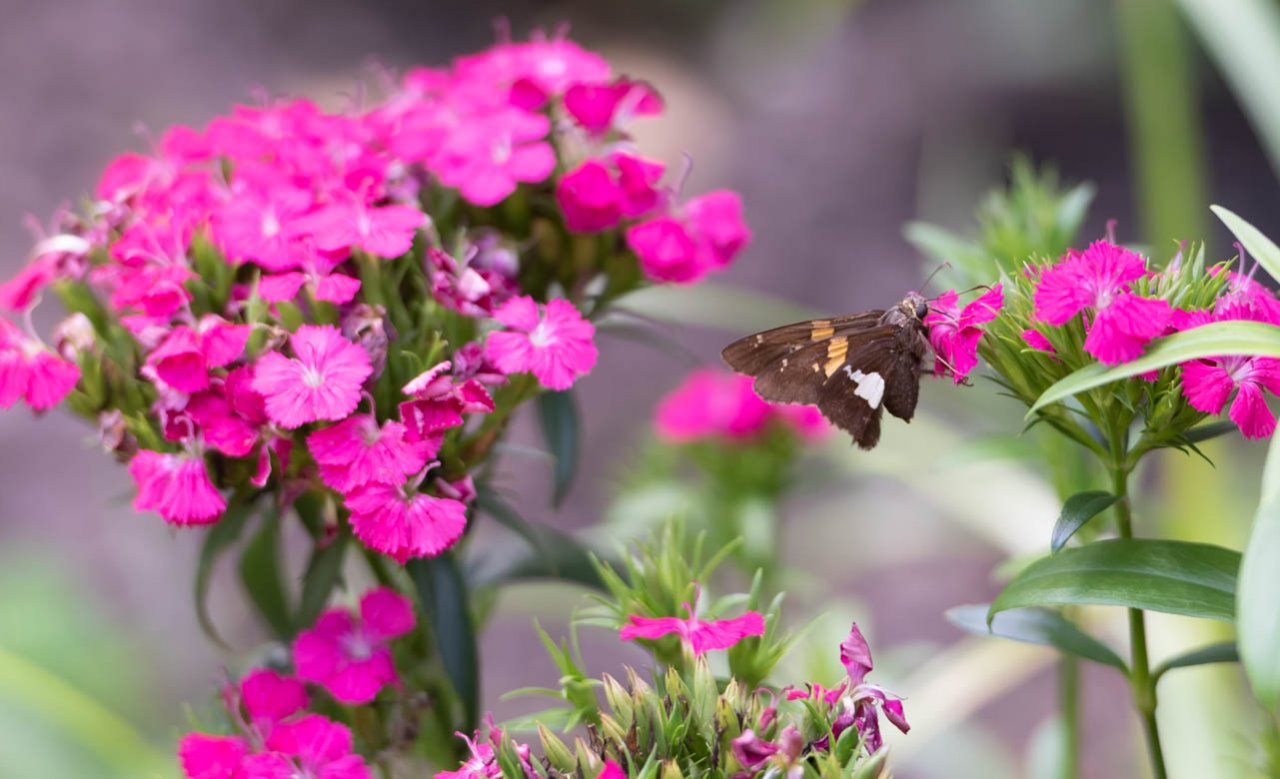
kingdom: Animalia
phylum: Arthropoda
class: Insecta
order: Lepidoptera
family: Hesperiidae
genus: Epargyreus
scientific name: Epargyreus clarus
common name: Silver-spotted Skipper
